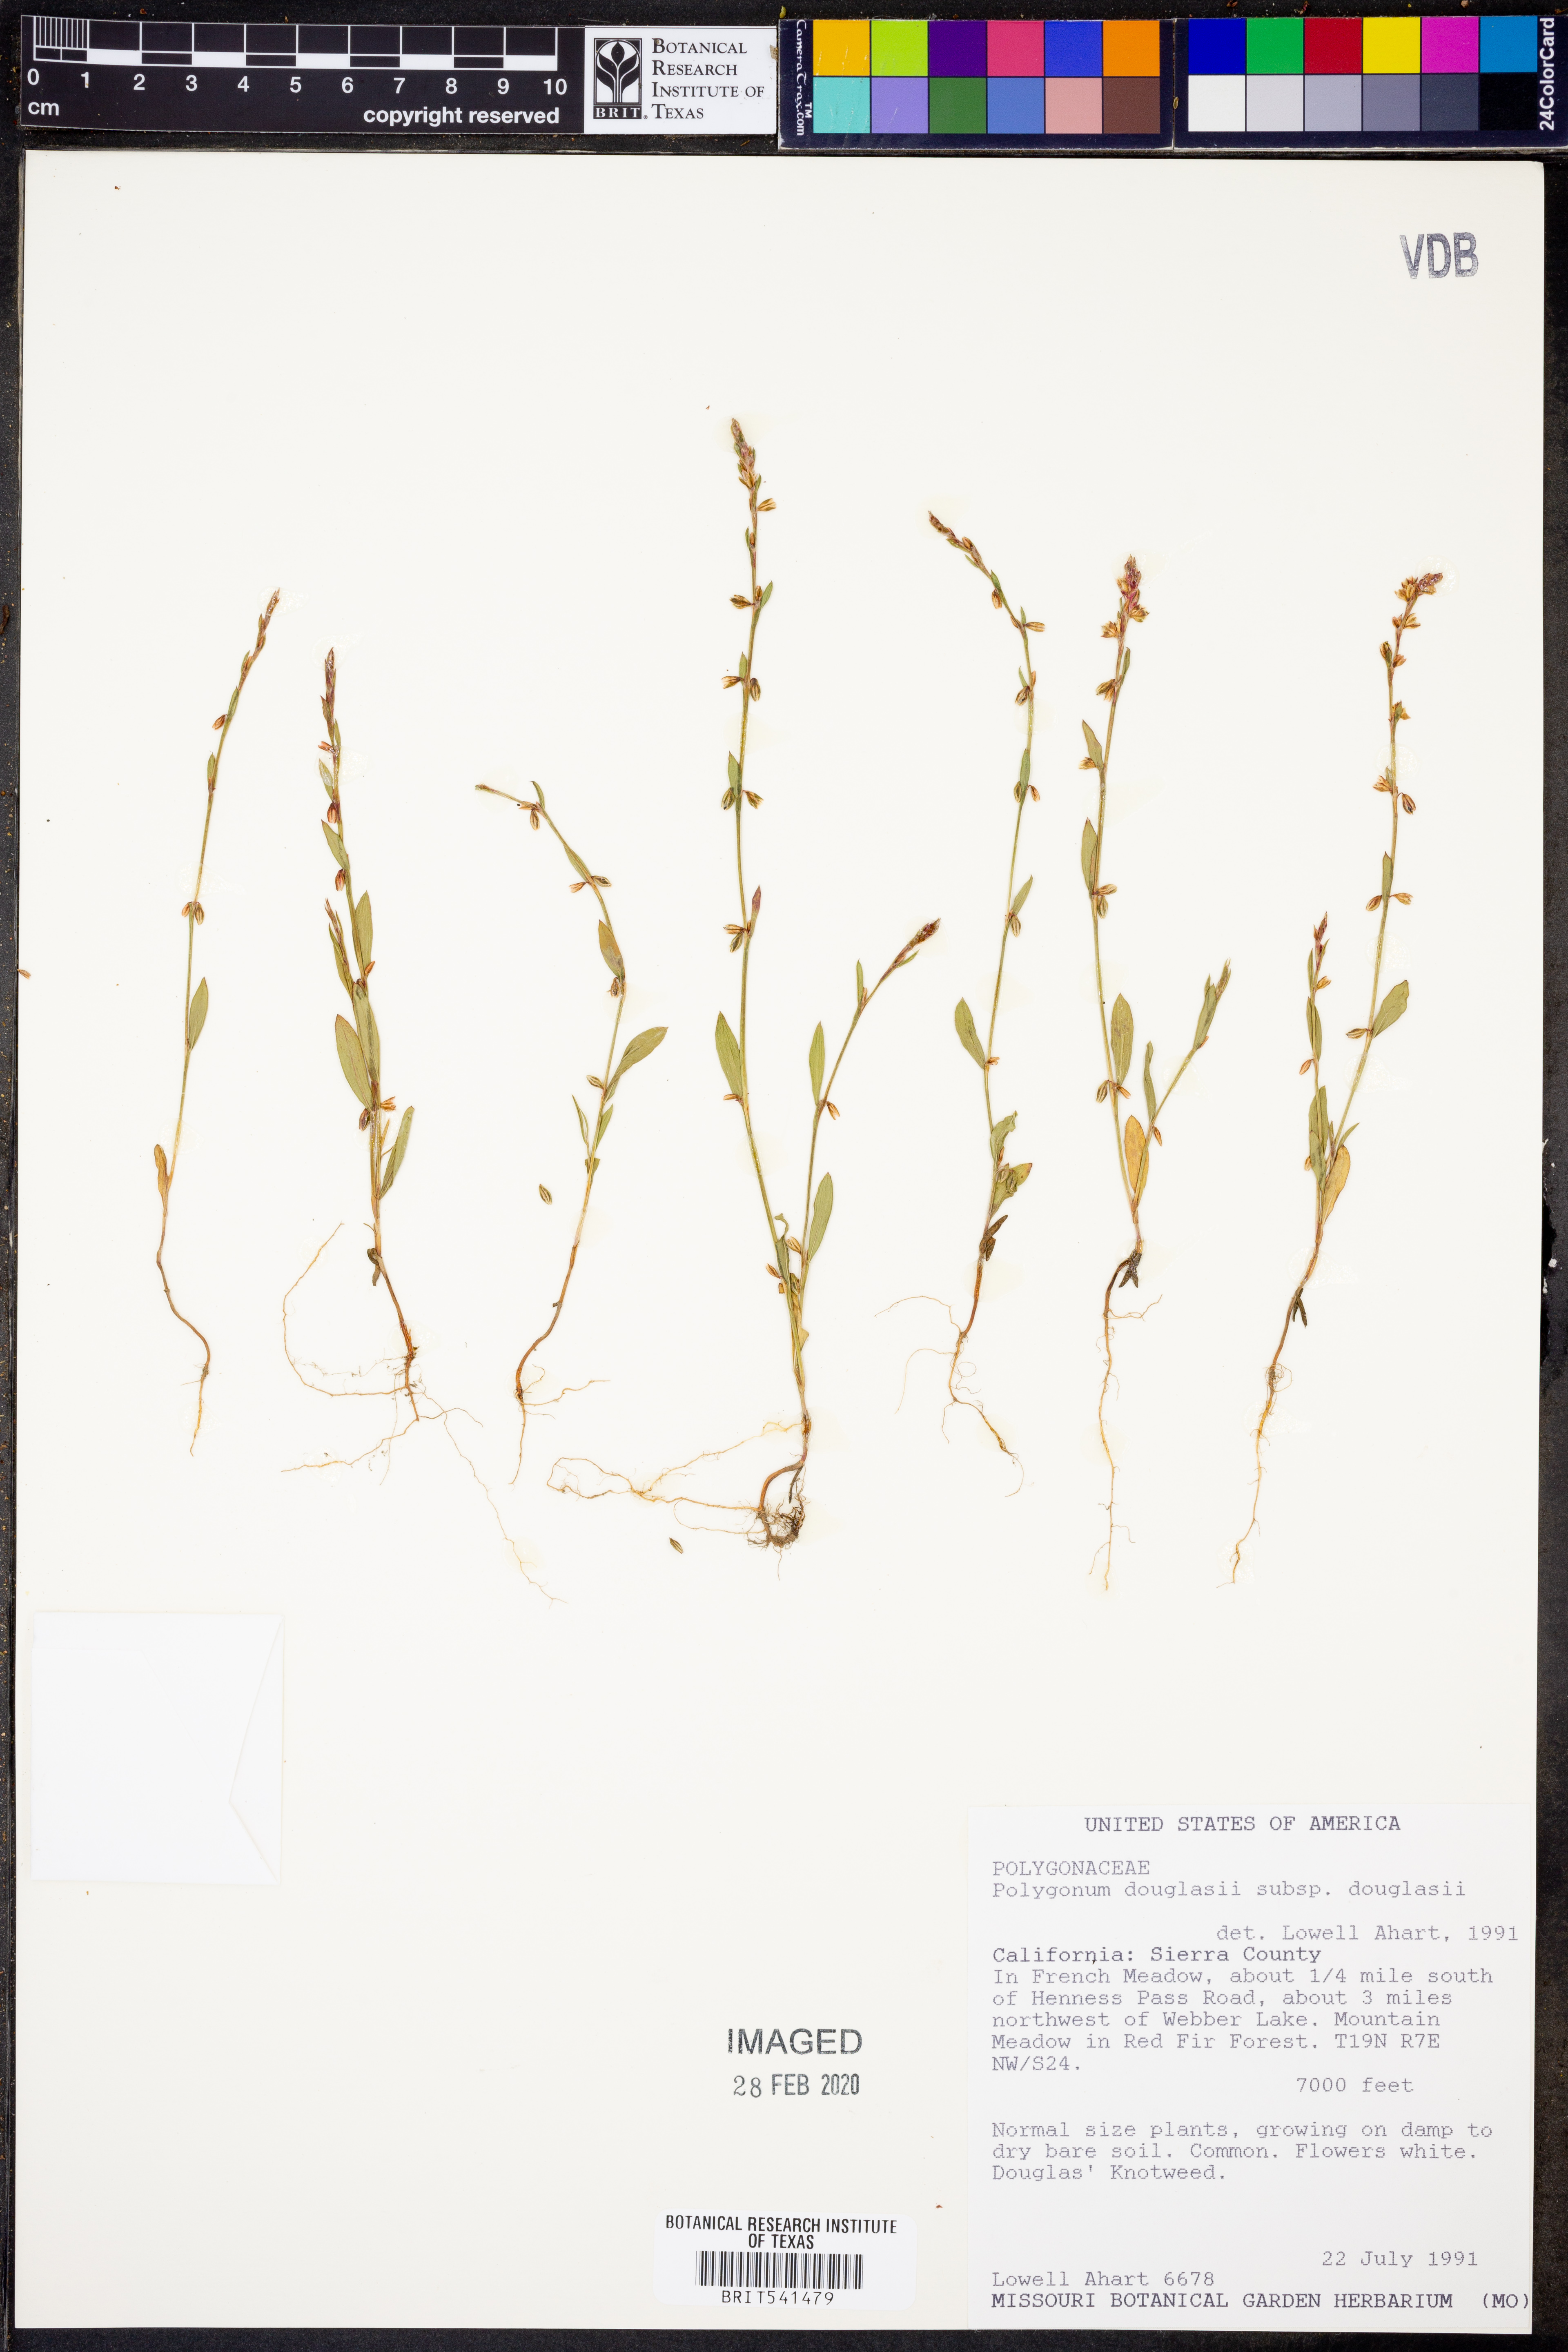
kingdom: Plantae
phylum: Tracheophyta
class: Magnoliopsida
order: Caryophyllales
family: Polygonaceae
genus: Polygonum
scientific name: Polygonum douglasii
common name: Douglas' knotweed
